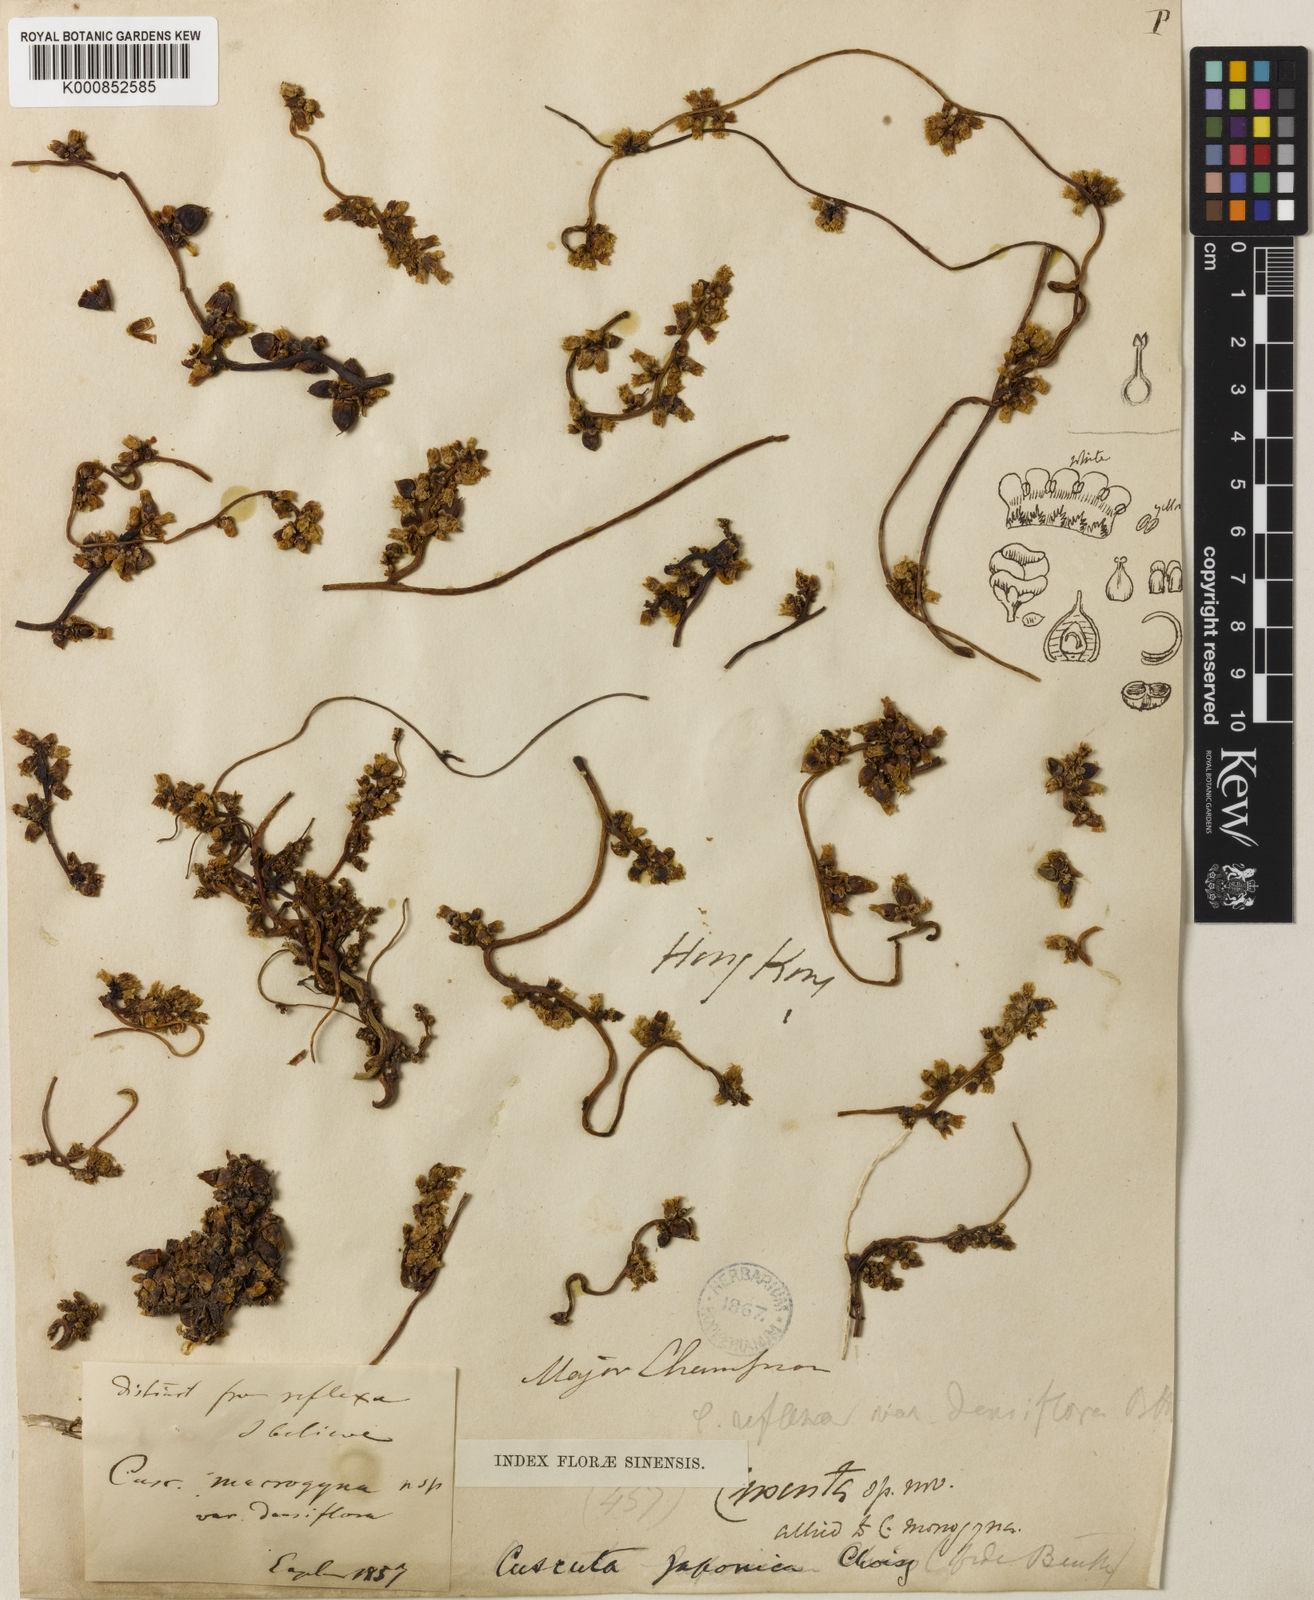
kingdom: Plantae
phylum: Tracheophyta
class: Magnoliopsida
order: Solanales
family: Convolvulaceae
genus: Cuscuta
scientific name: Cuscuta japonica
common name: Japanese dodder
